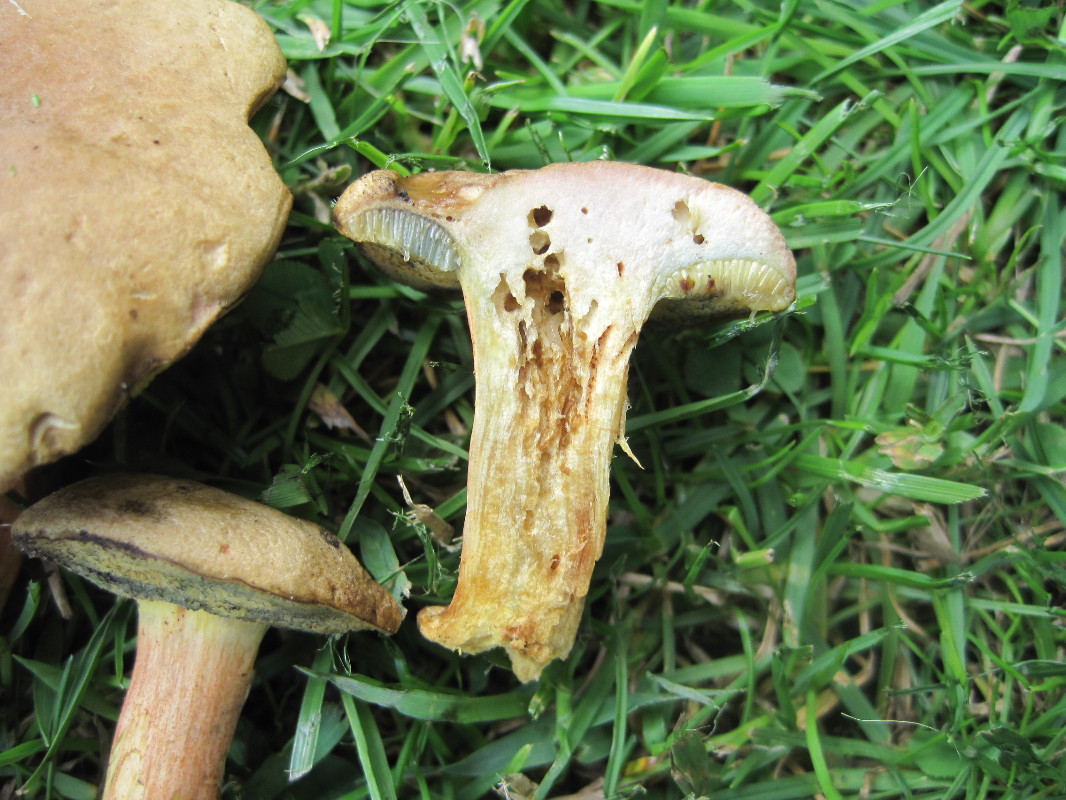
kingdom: Fungi
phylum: Basidiomycota
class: Agaricomycetes
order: Boletales
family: Boletaceae
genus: Hortiboletus
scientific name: Hortiboletus bubalinus
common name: aurora-rørhat
